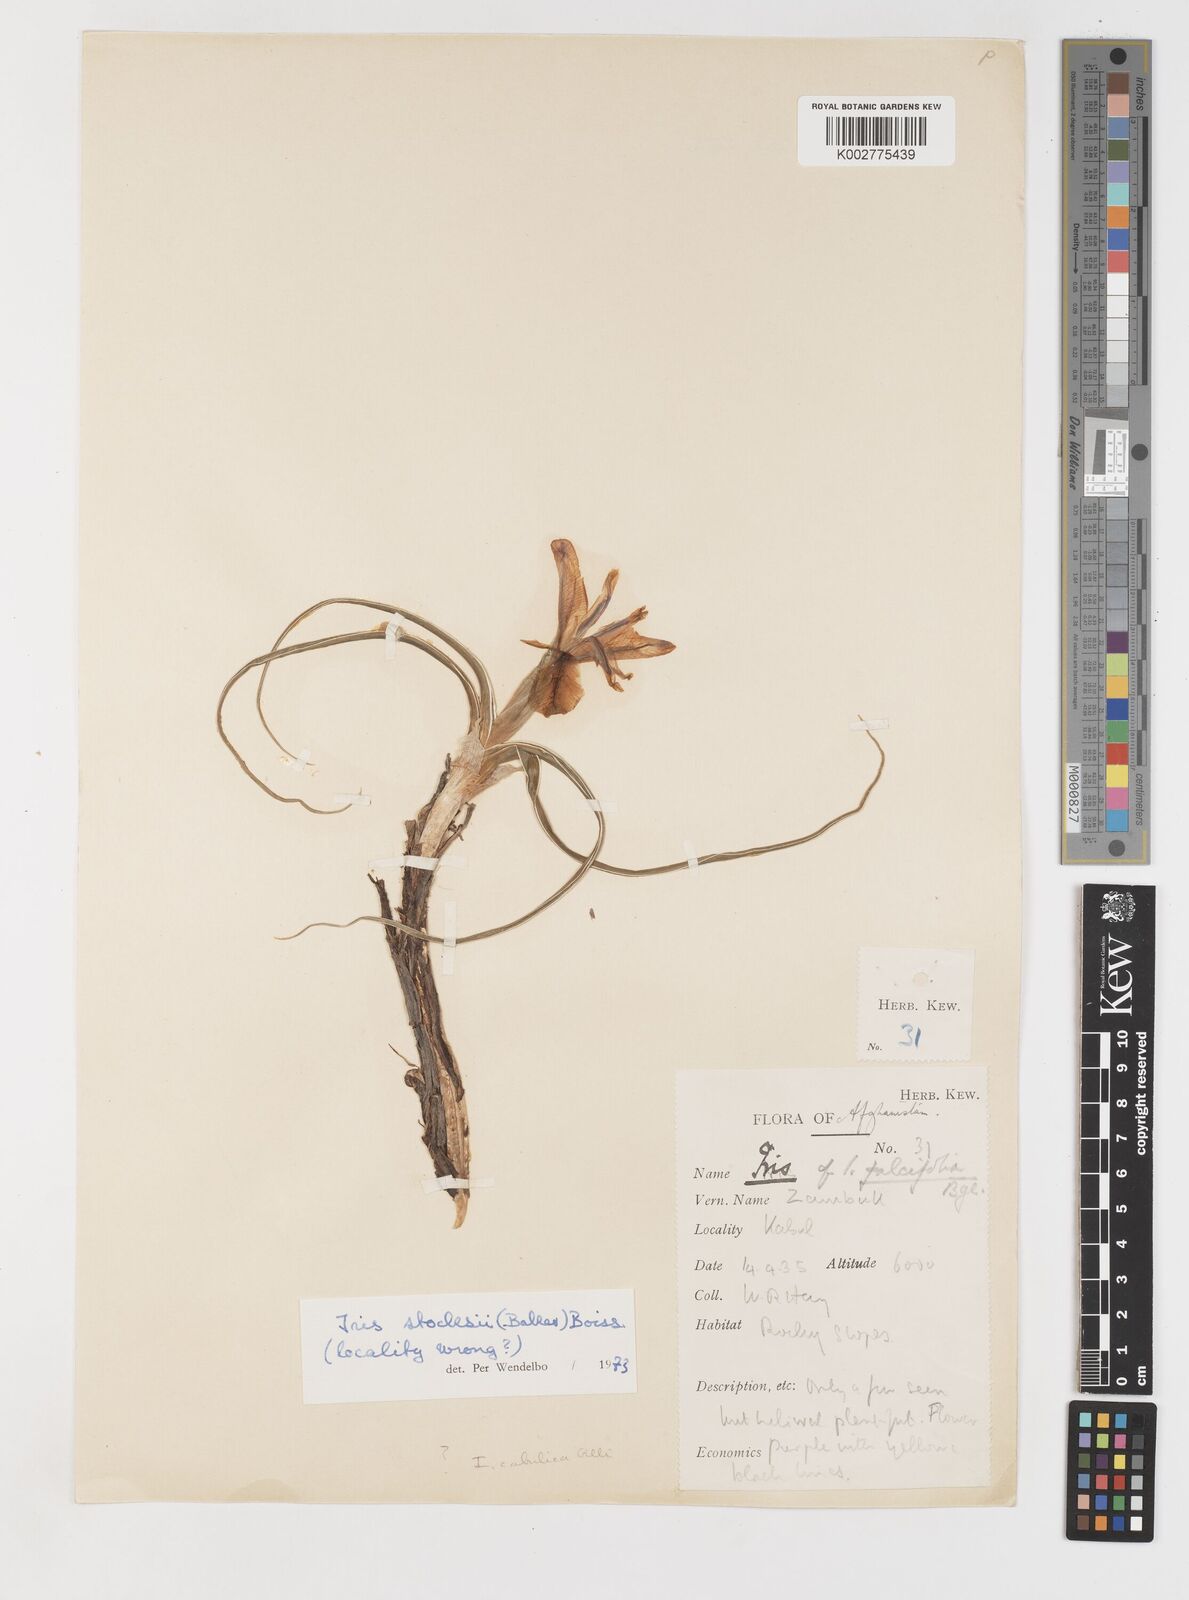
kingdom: Plantae
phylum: Tracheophyta
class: Liliopsida
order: Asparagales
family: Iridaceae
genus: Iris
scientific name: Iris stocksii
